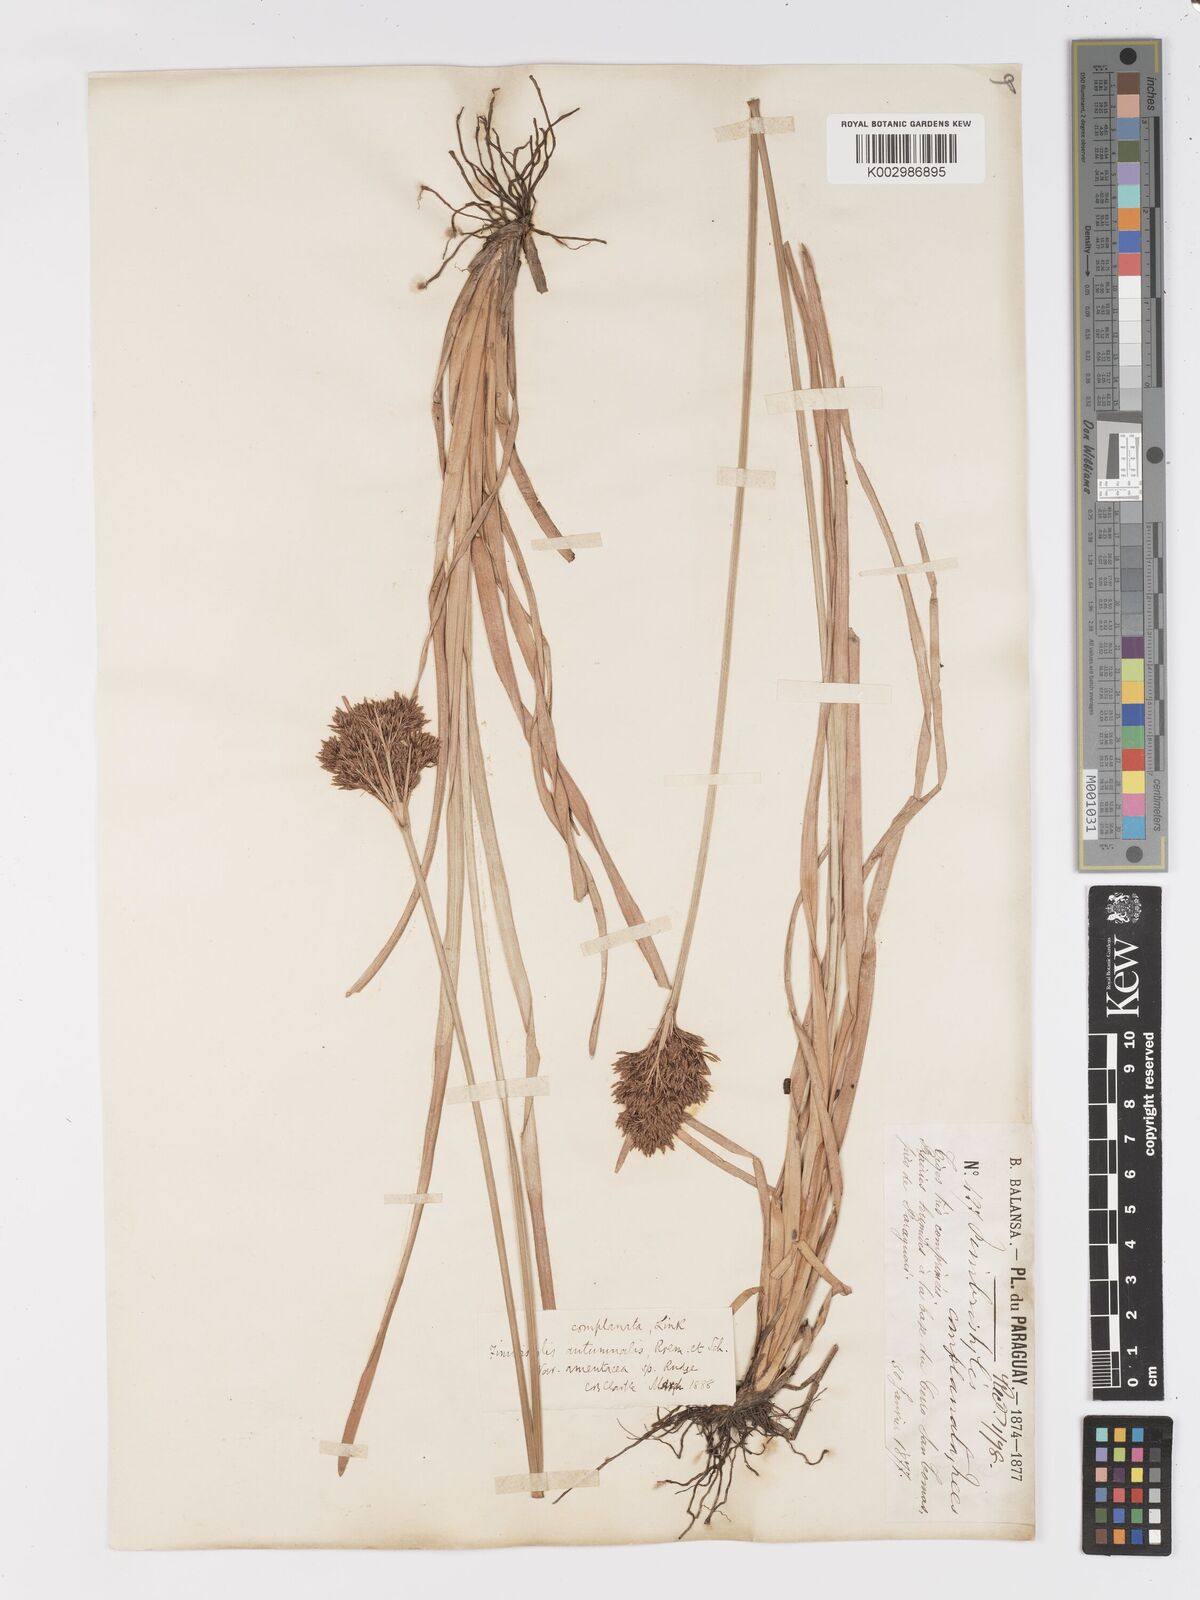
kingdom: Plantae
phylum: Tracheophyta
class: Liliopsida
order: Poales
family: Cyperaceae
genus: Fimbristylis
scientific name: Fimbristylis complanata
